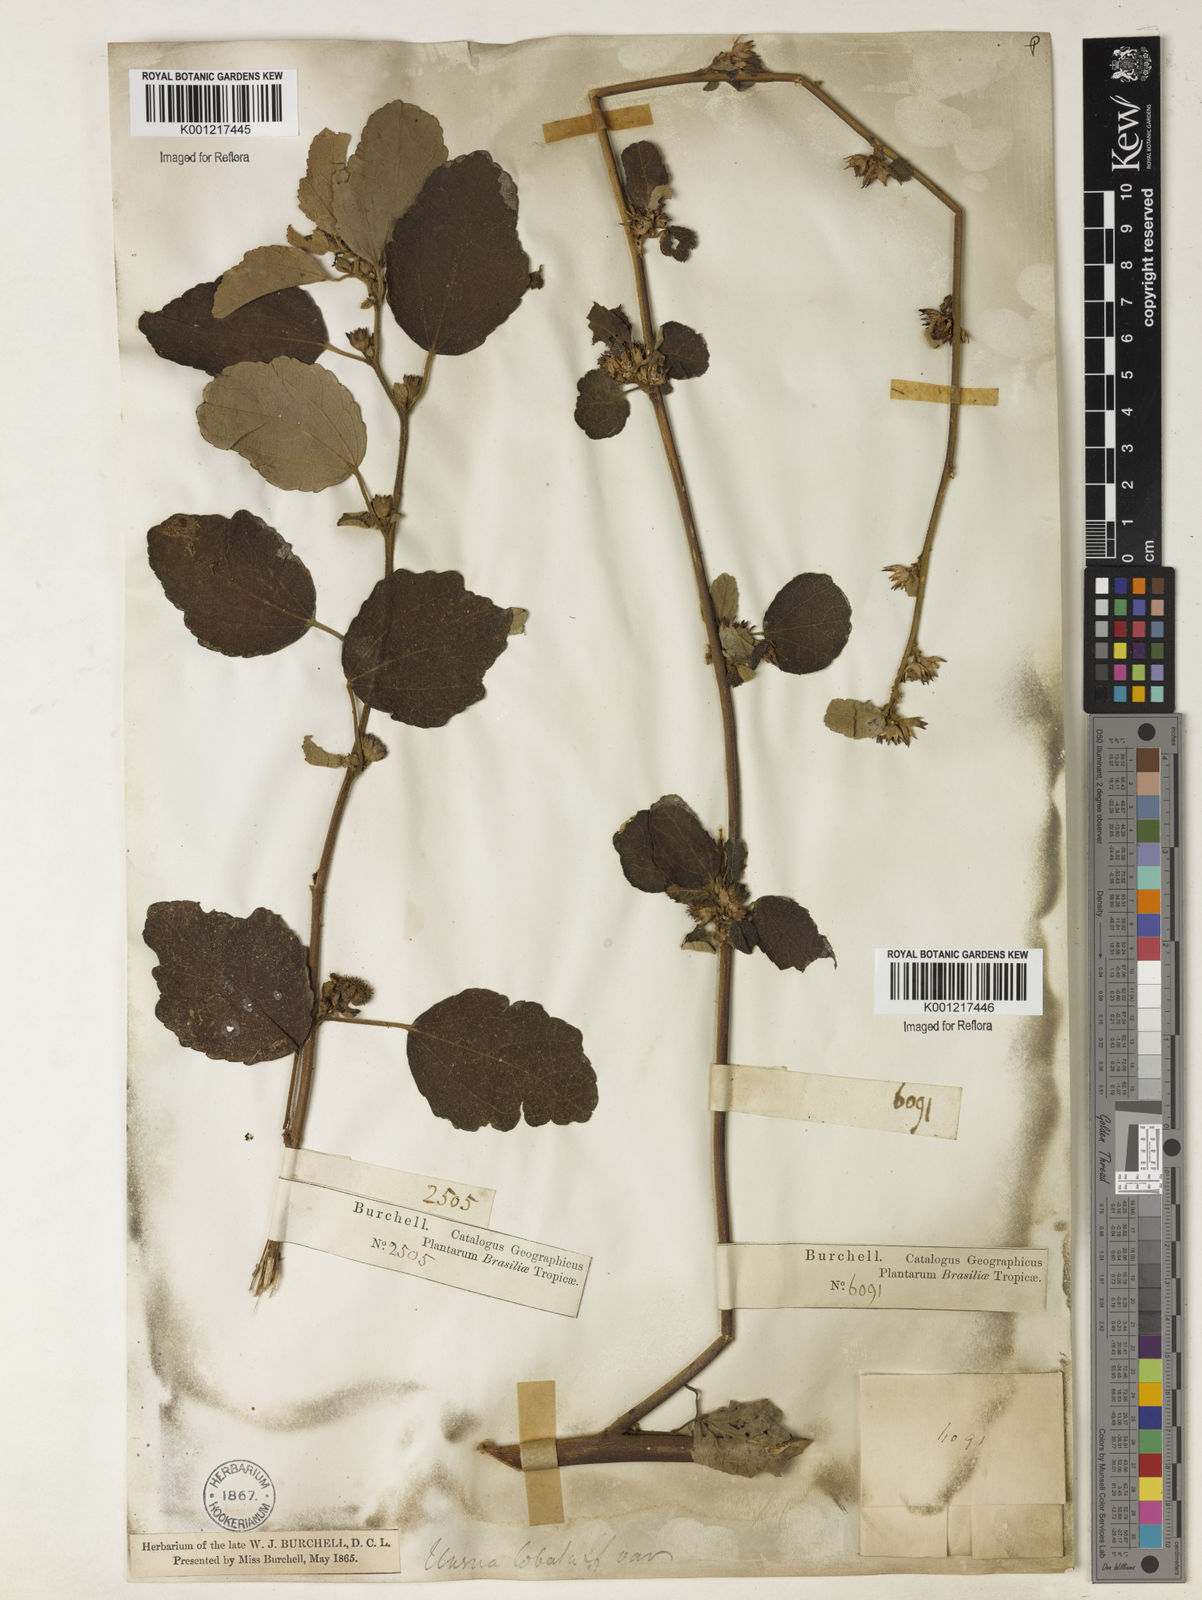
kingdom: Plantae
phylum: Tracheophyta
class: Magnoliopsida
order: Malvales
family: Malvaceae
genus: Urena
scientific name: Urena lobata
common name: Caesarweed
